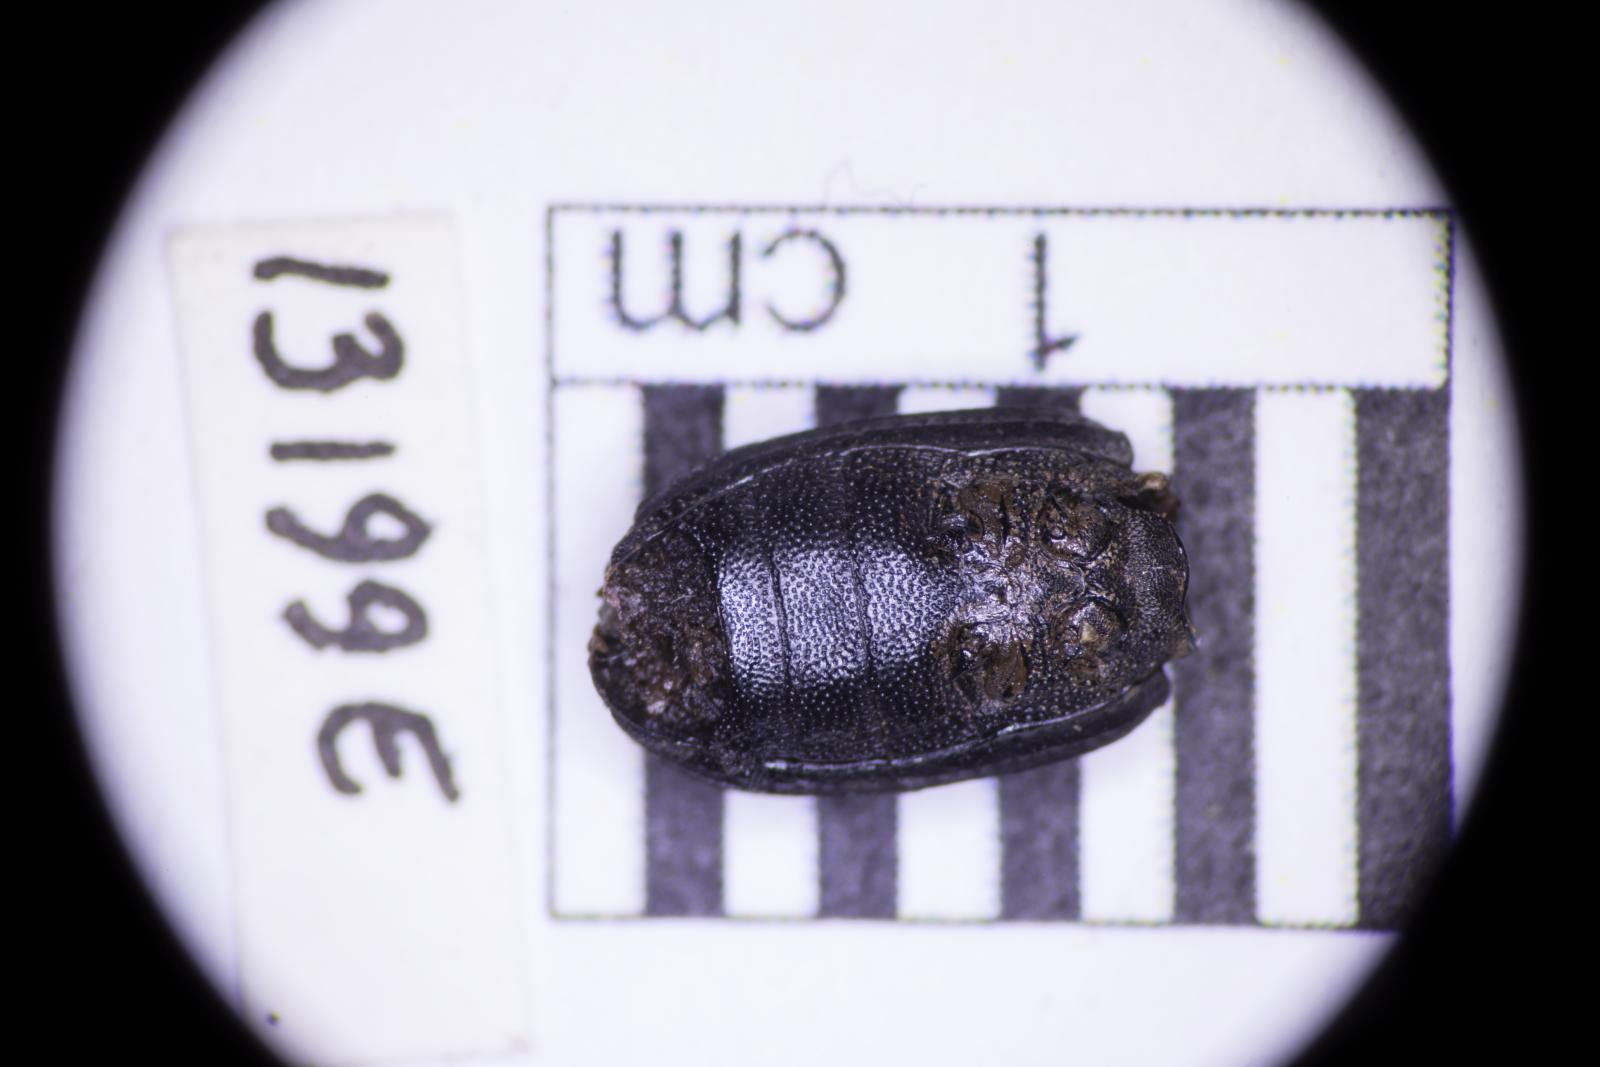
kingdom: Animalia
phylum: Arthropoda
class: Insecta
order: Coleoptera
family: Tenebrionidae
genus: Apsena
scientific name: Apsena laticornis
